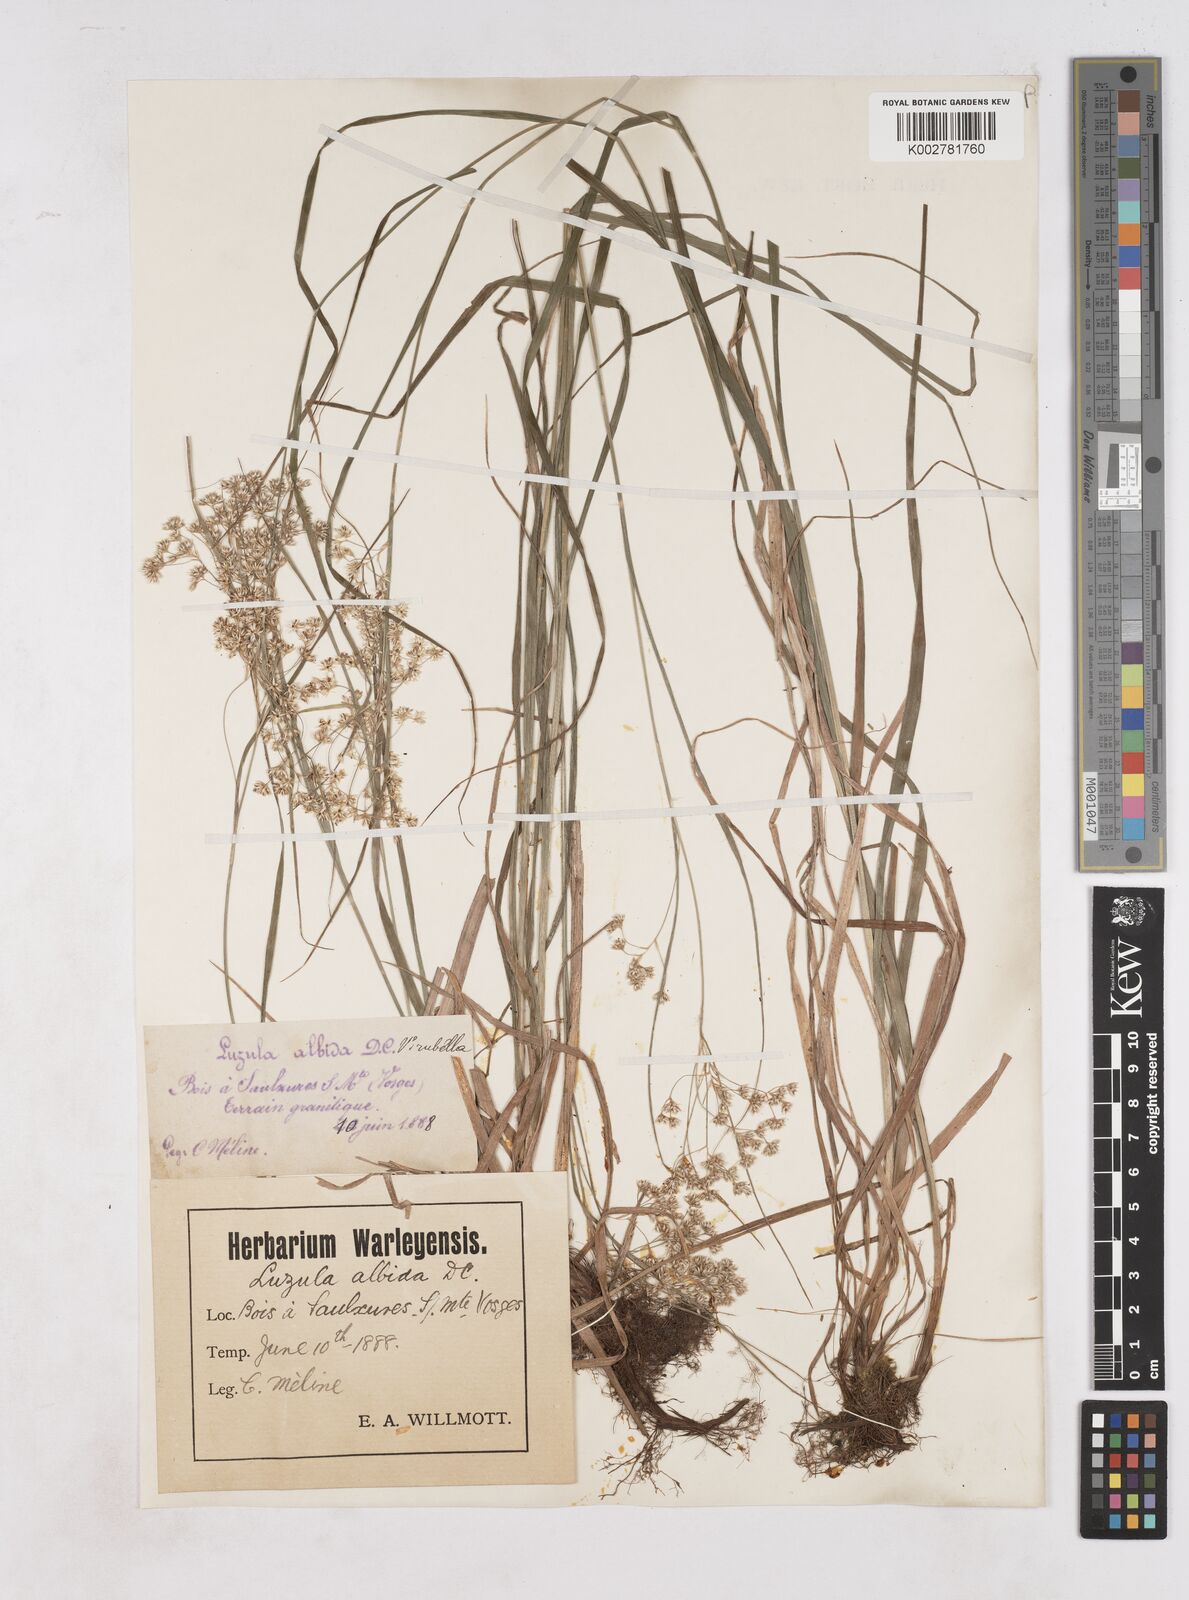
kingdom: Plantae
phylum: Tracheophyta
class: Liliopsida
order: Poales
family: Juncaceae
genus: Luzula
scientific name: Luzula luzuloides
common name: White wood-rush
